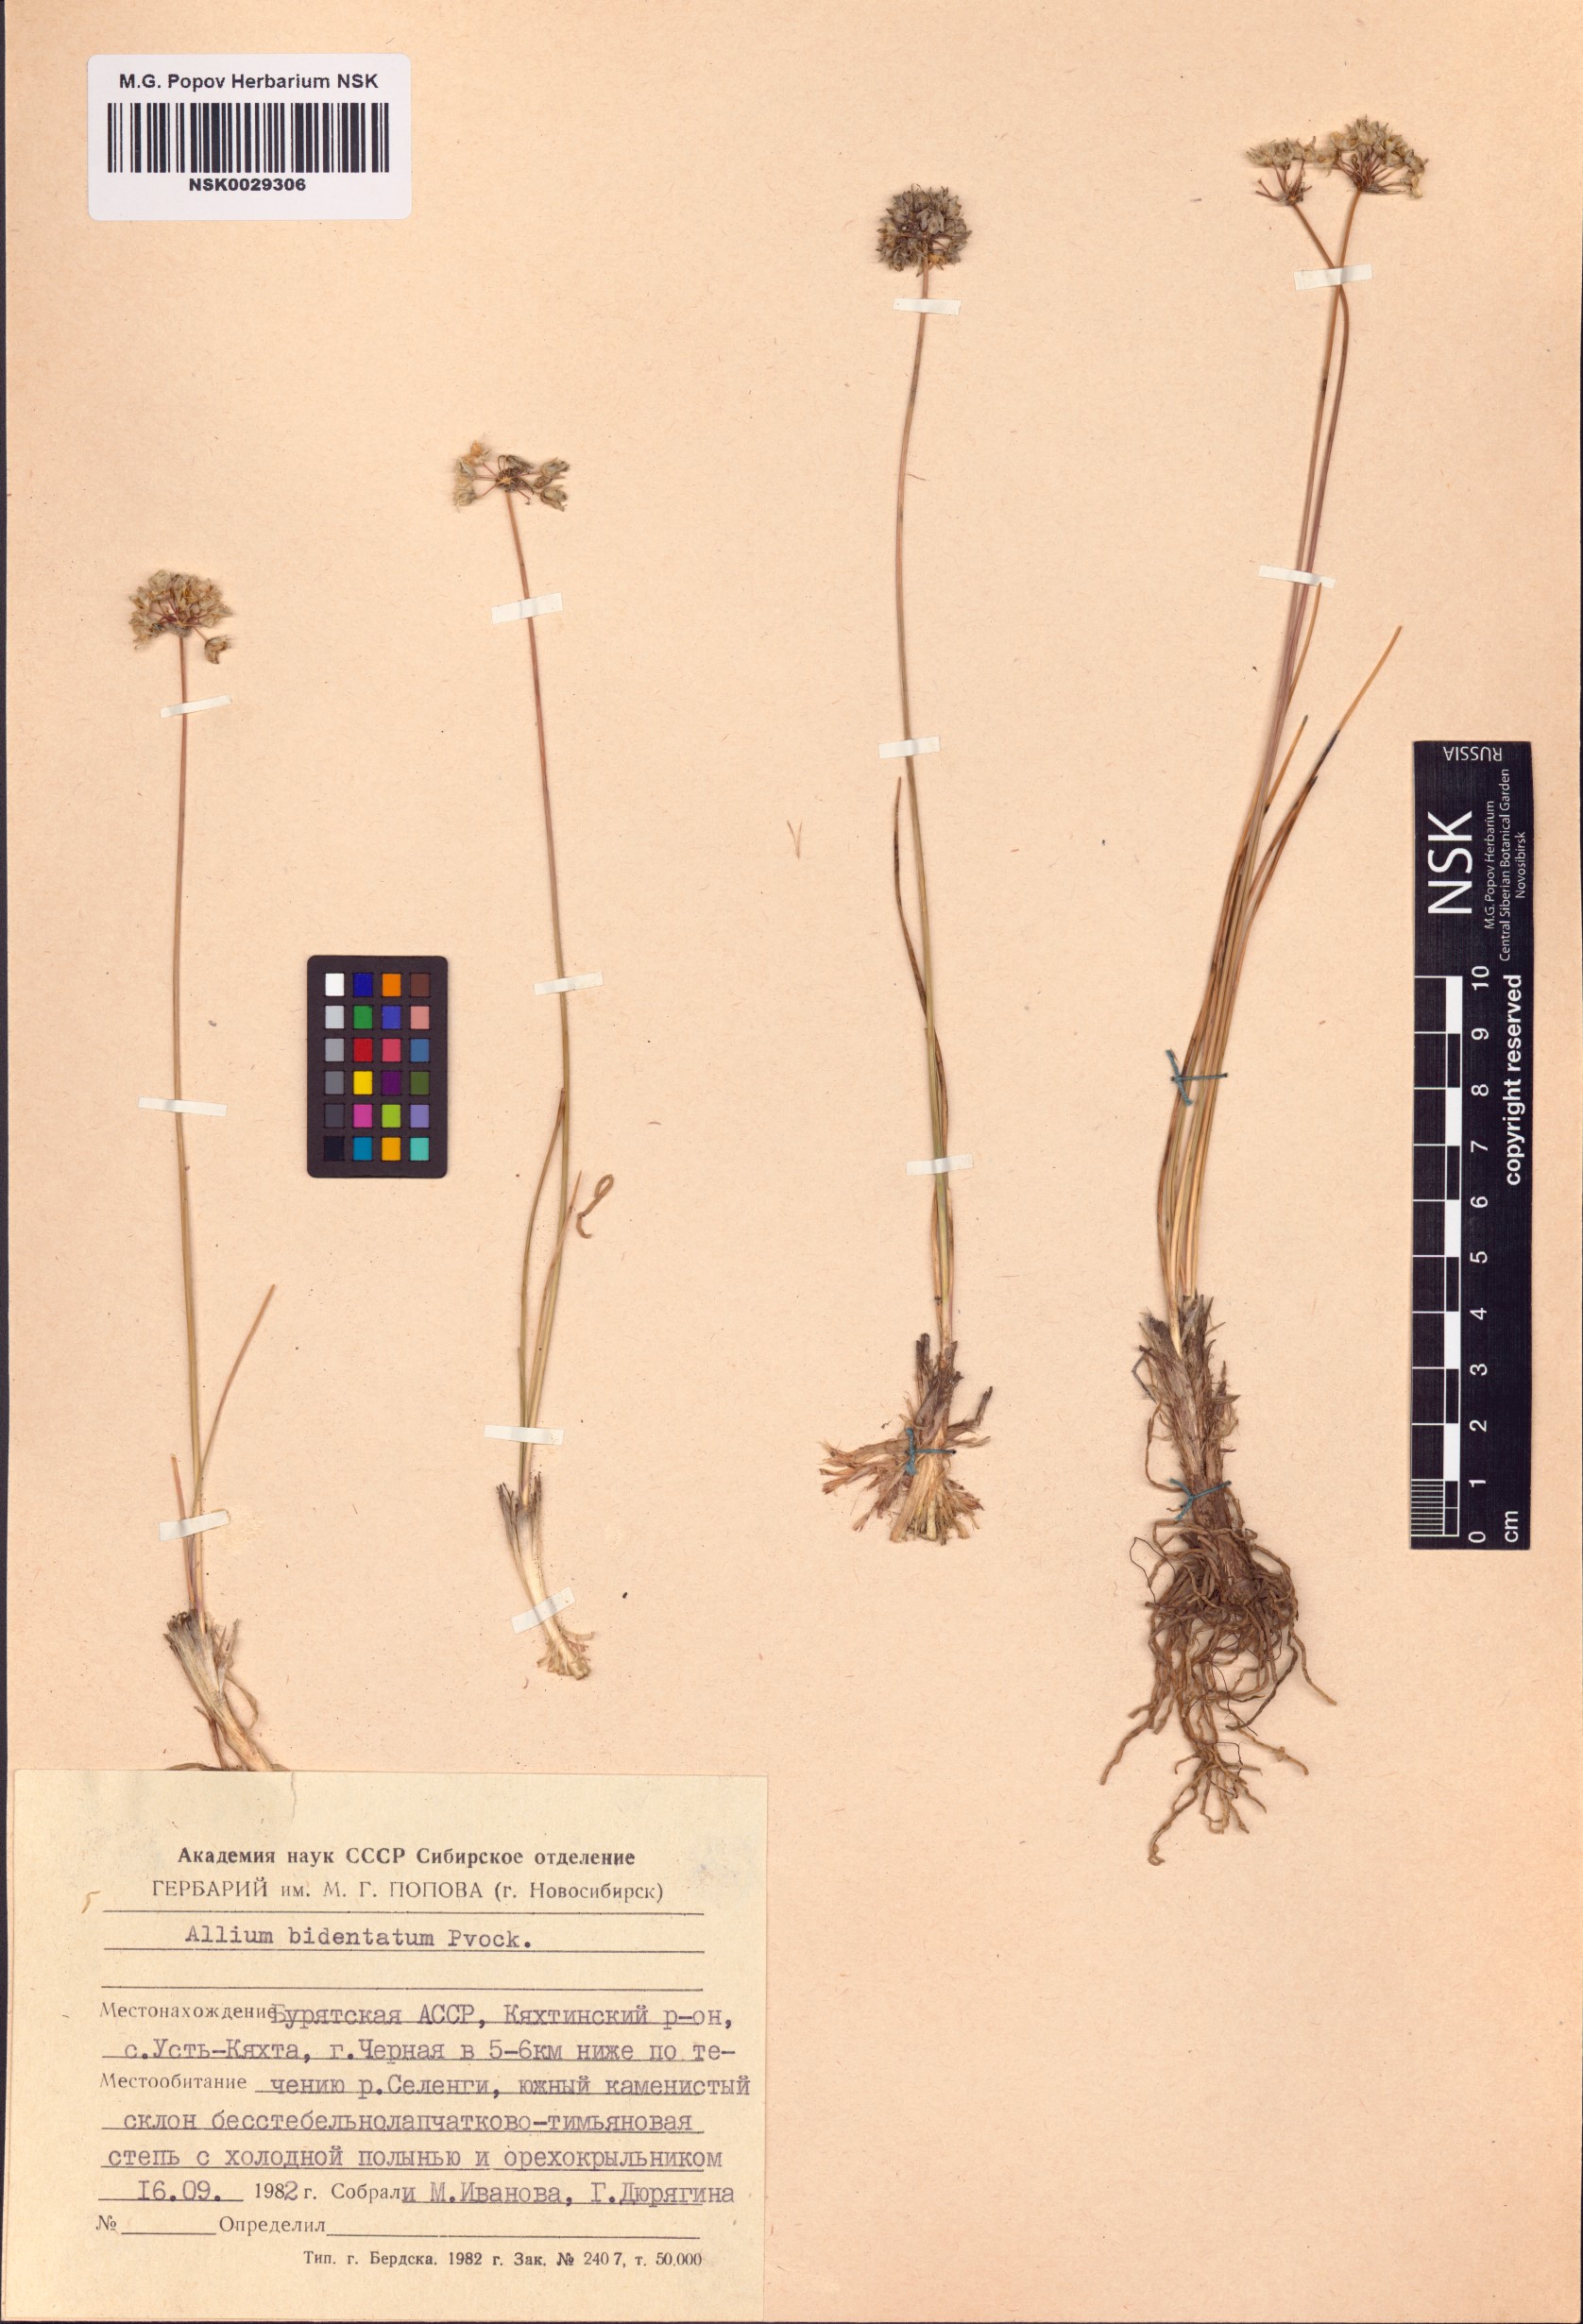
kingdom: Plantae
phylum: Tracheophyta
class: Liliopsida
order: Asparagales
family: Amaryllidaceae
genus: Allium
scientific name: Allium bidentatum
